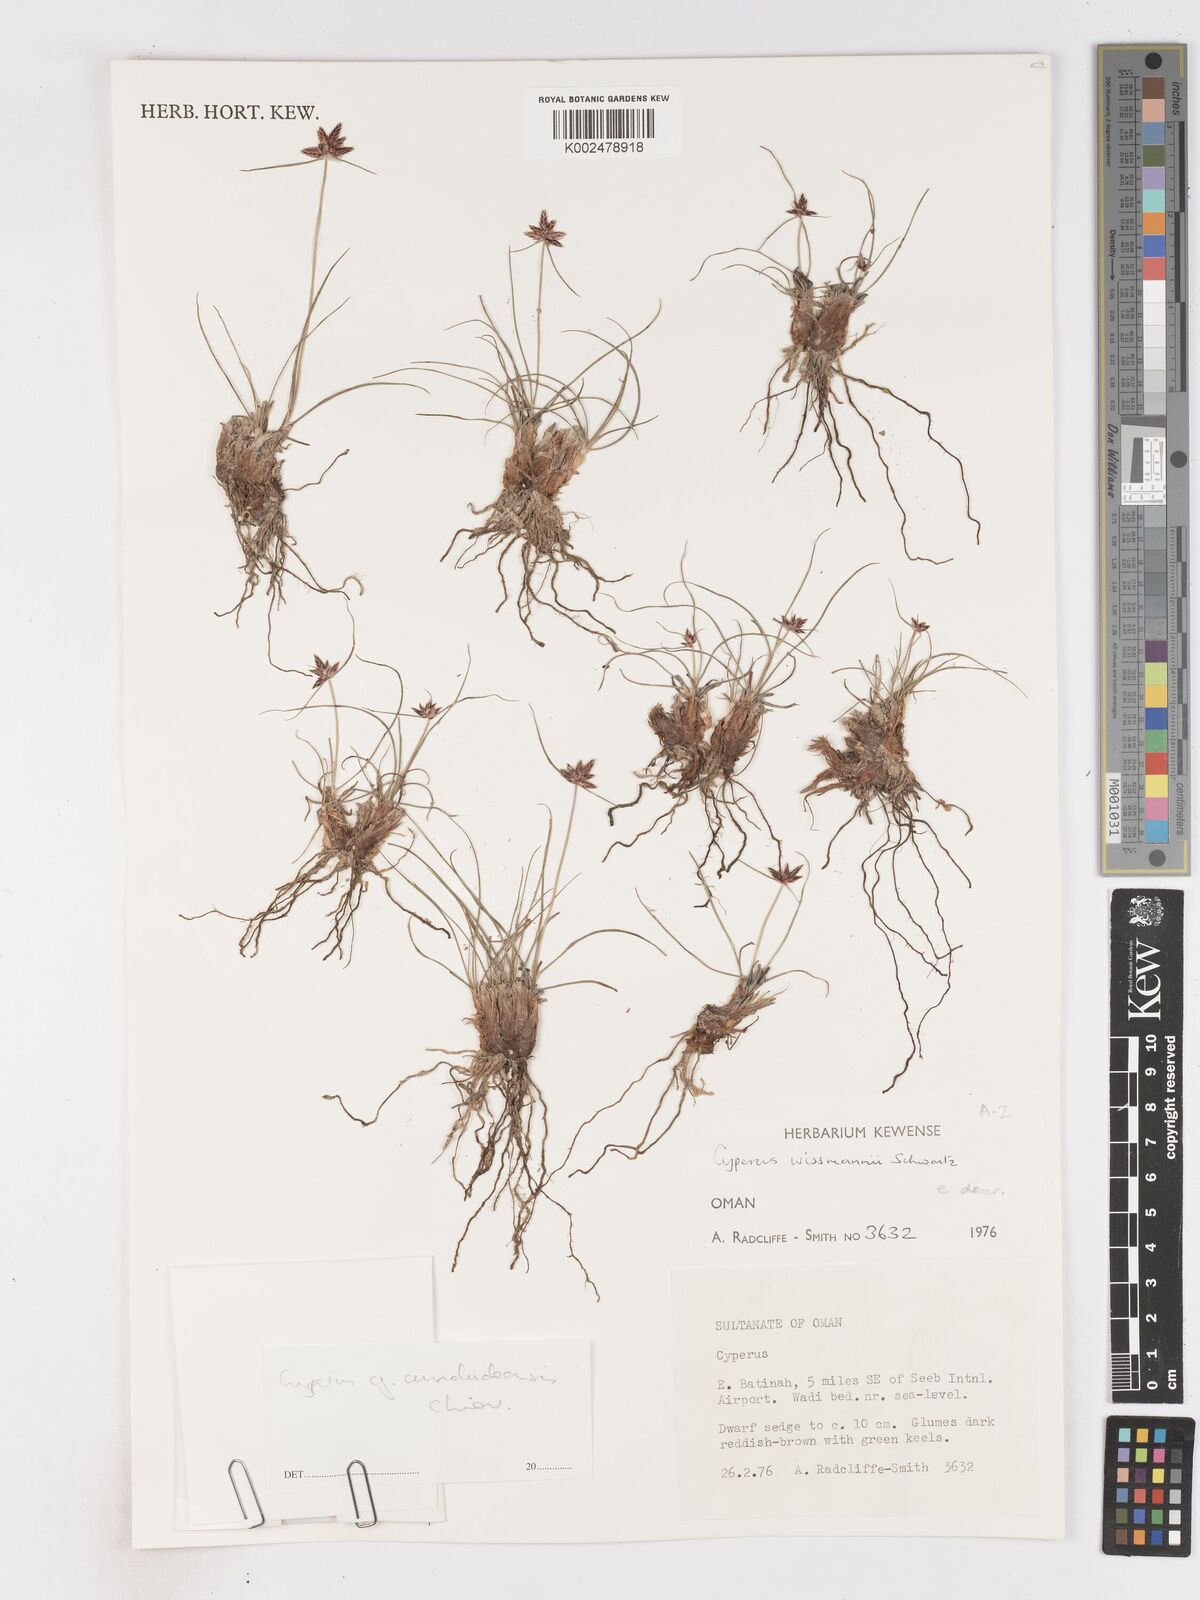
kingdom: Plantae
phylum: Tracheophyta
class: Liliopsida
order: Poales
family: Cyperaceae
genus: Cyperus
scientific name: Cyperus wissmannii
